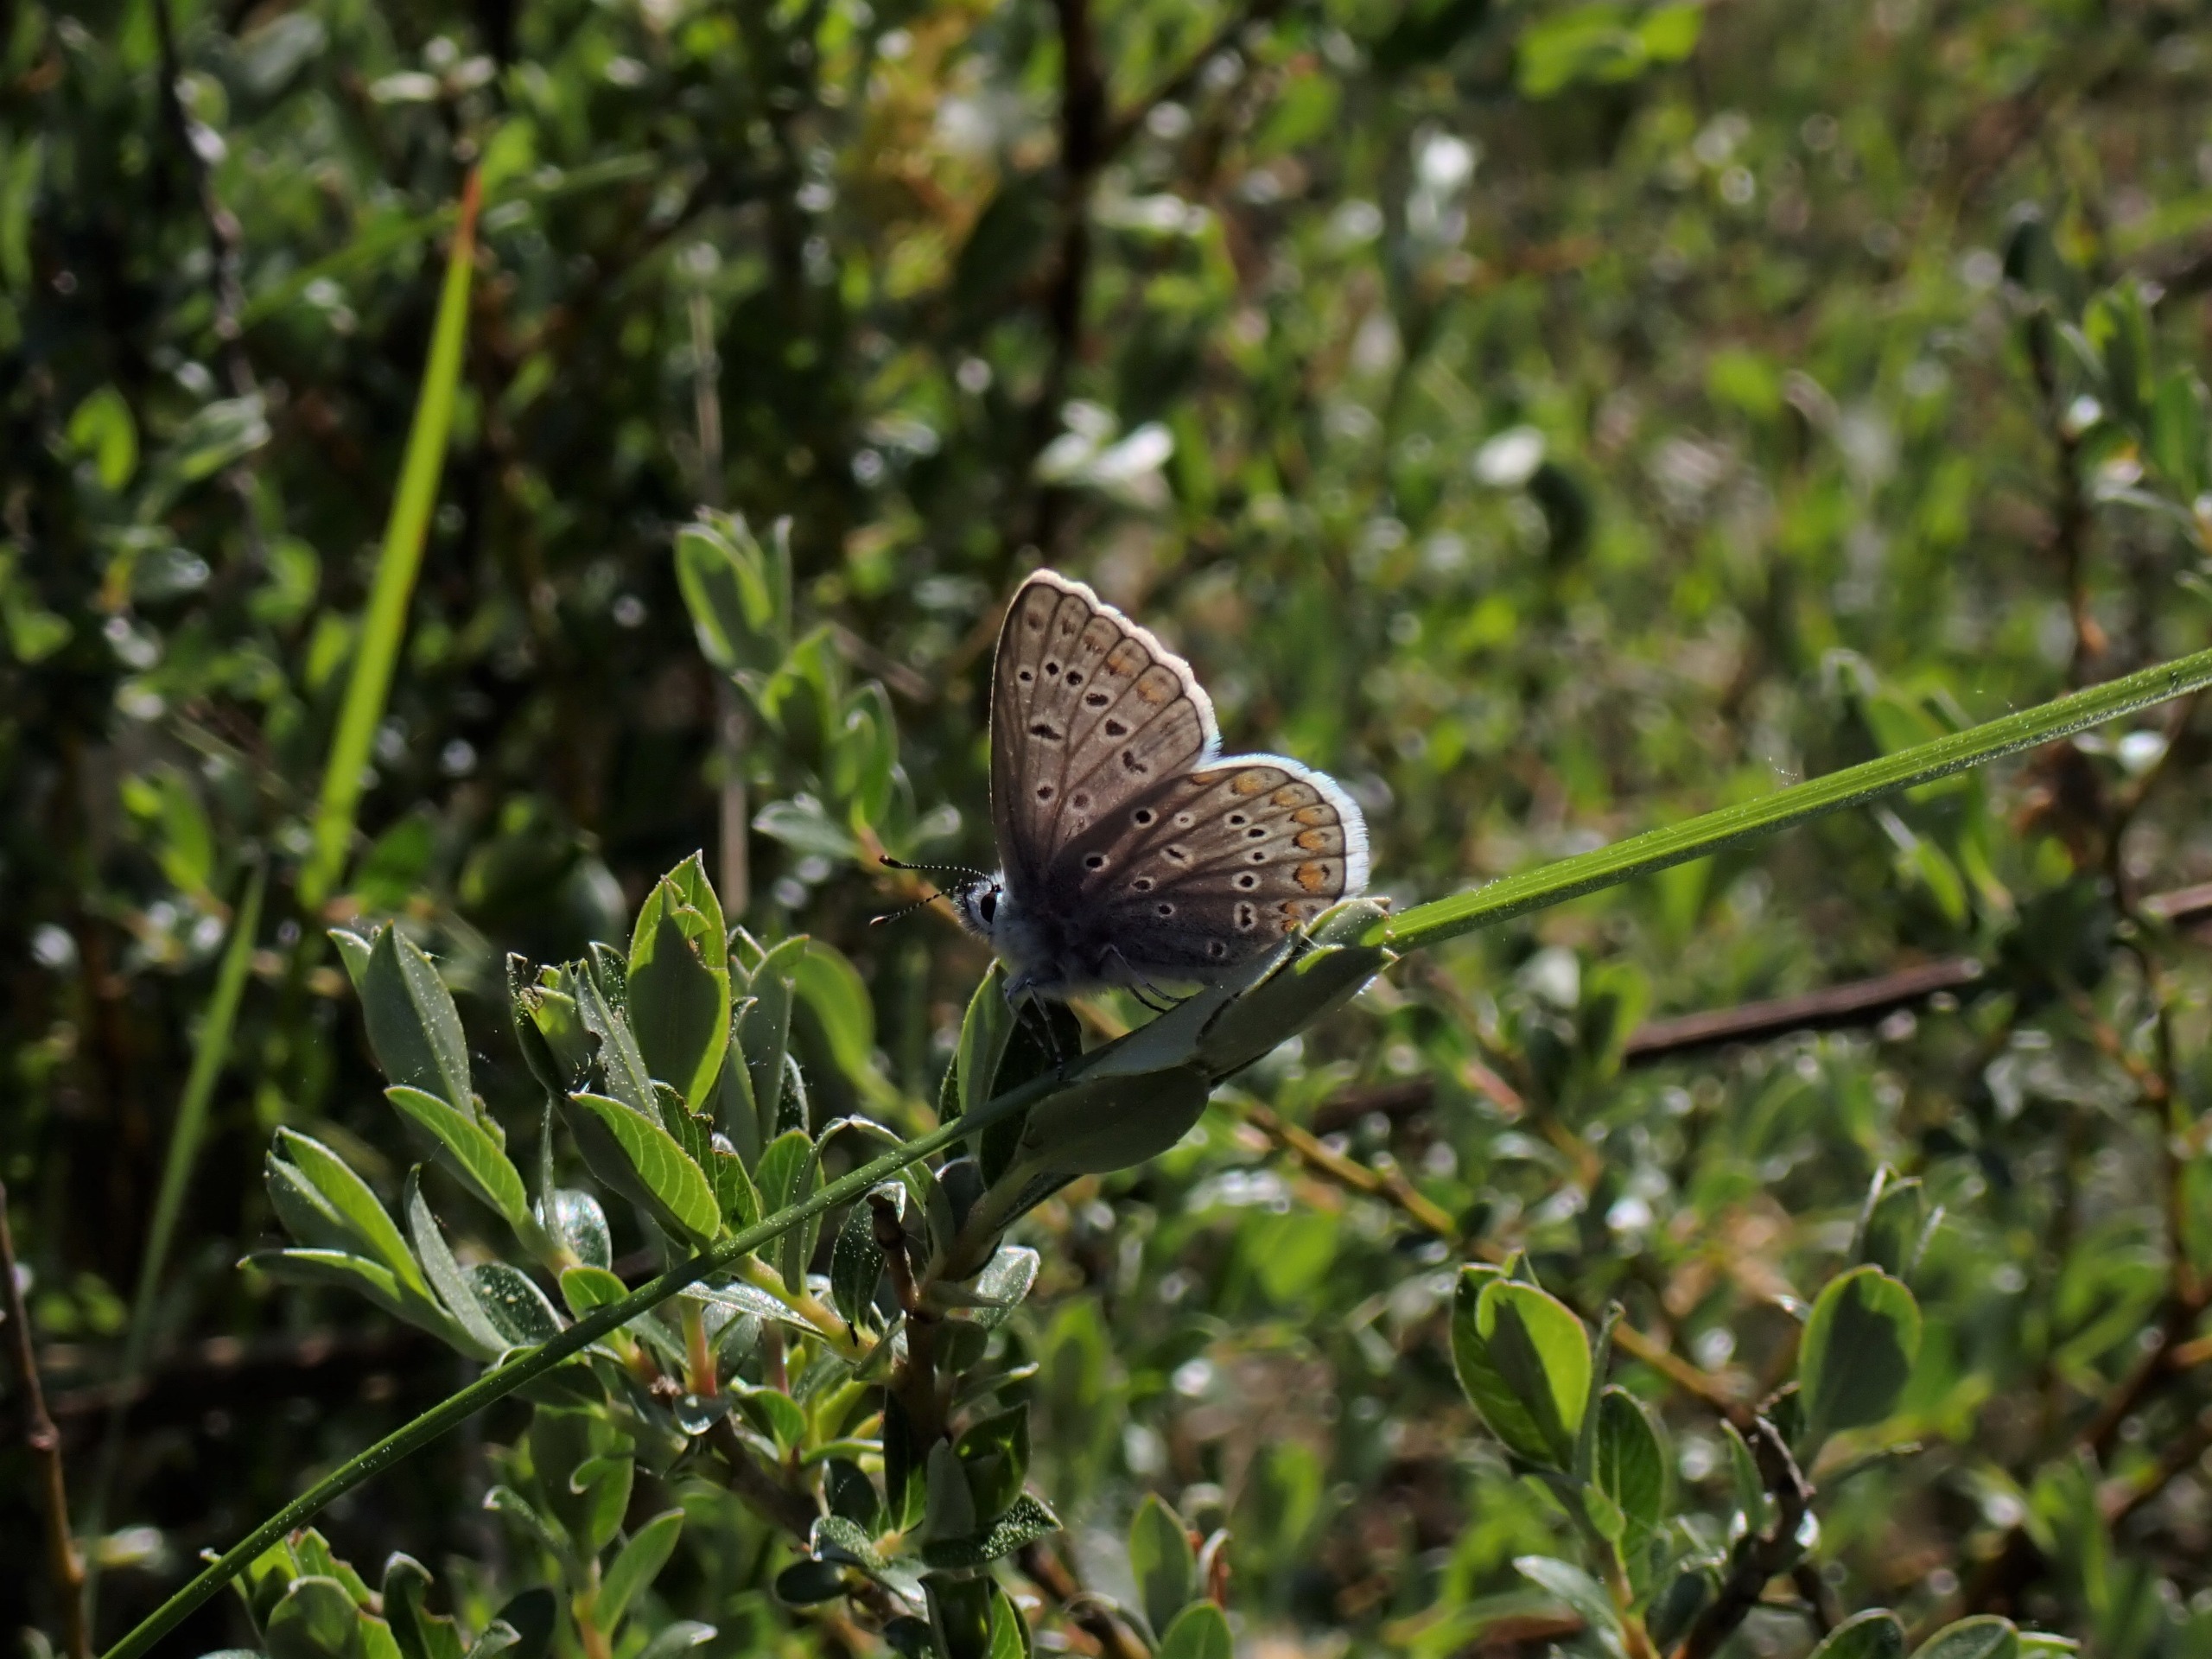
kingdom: Animalia
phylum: Arthropoda
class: Insecta
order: Lepidoptera
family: Lycaenidae
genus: Polyommatus
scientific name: Polyommatus icarus
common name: Almindelig blåfugl
